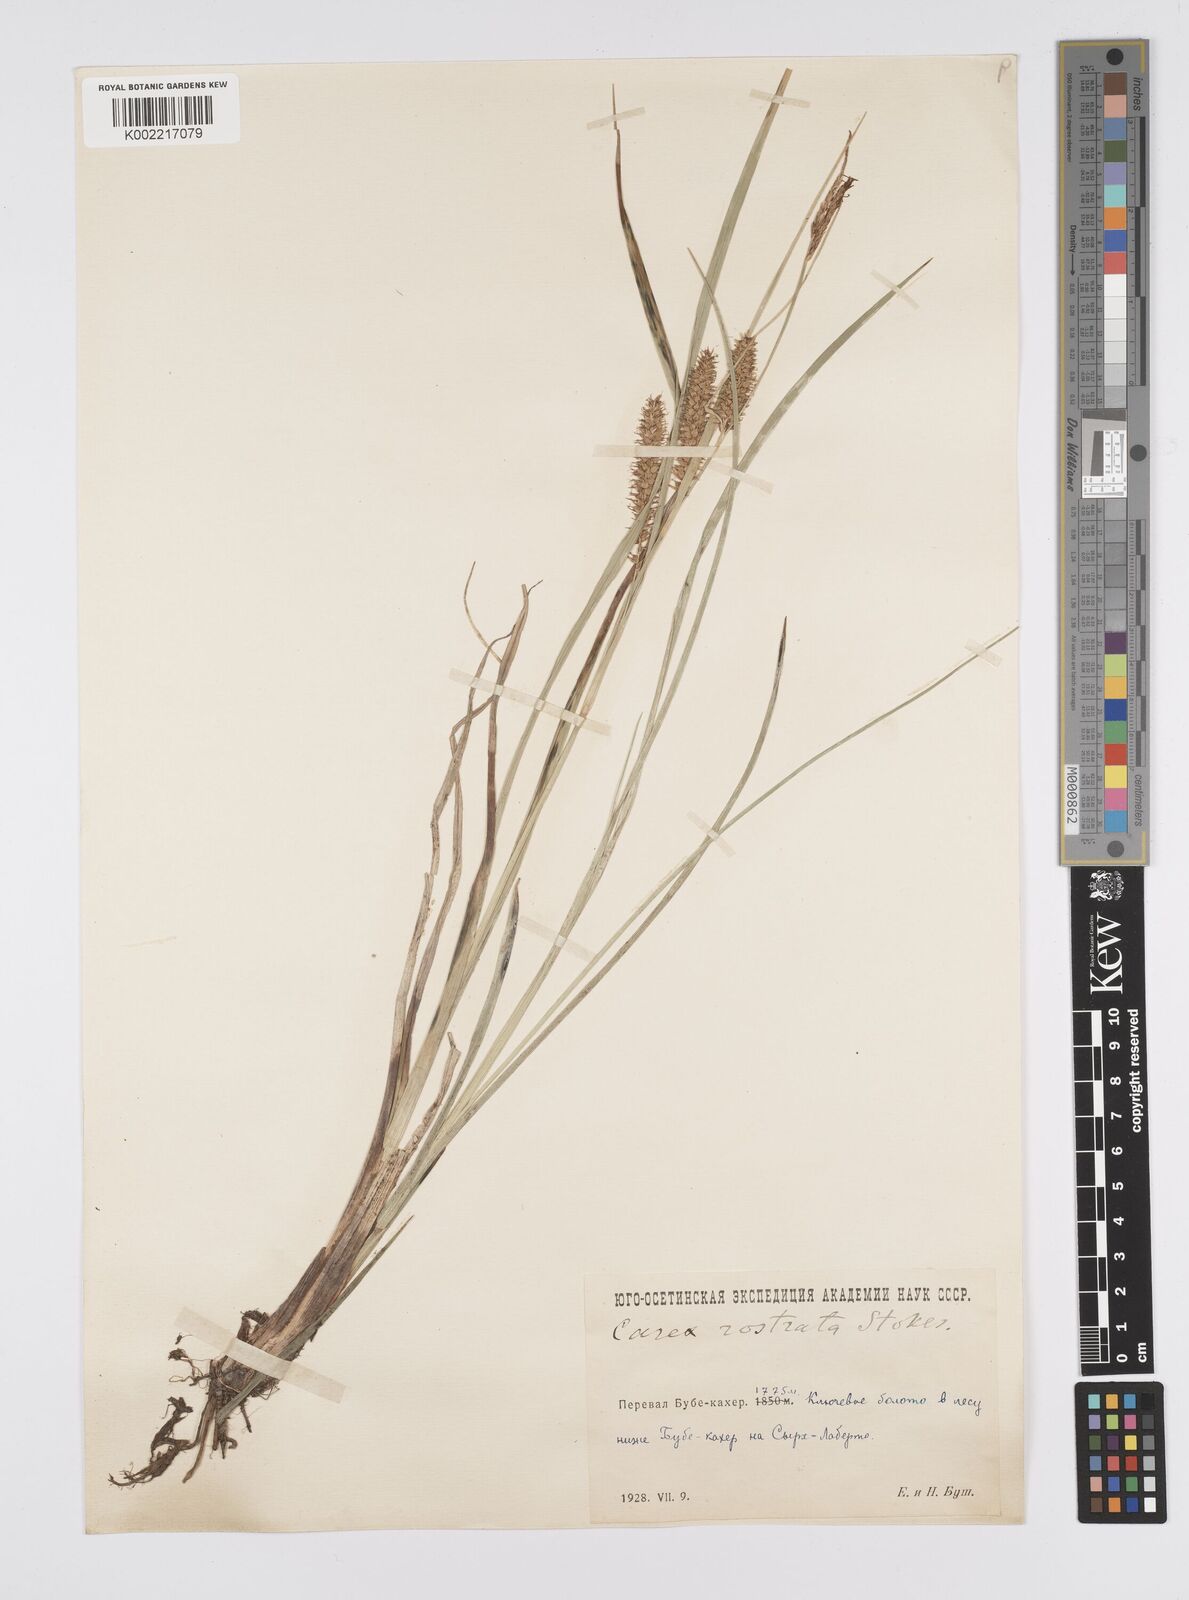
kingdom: Plantae
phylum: Tracheophyta
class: Liliopsida
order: Poales
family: Cyperaceae
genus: Carex
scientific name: Carex rostrata
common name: Bottle sedge
